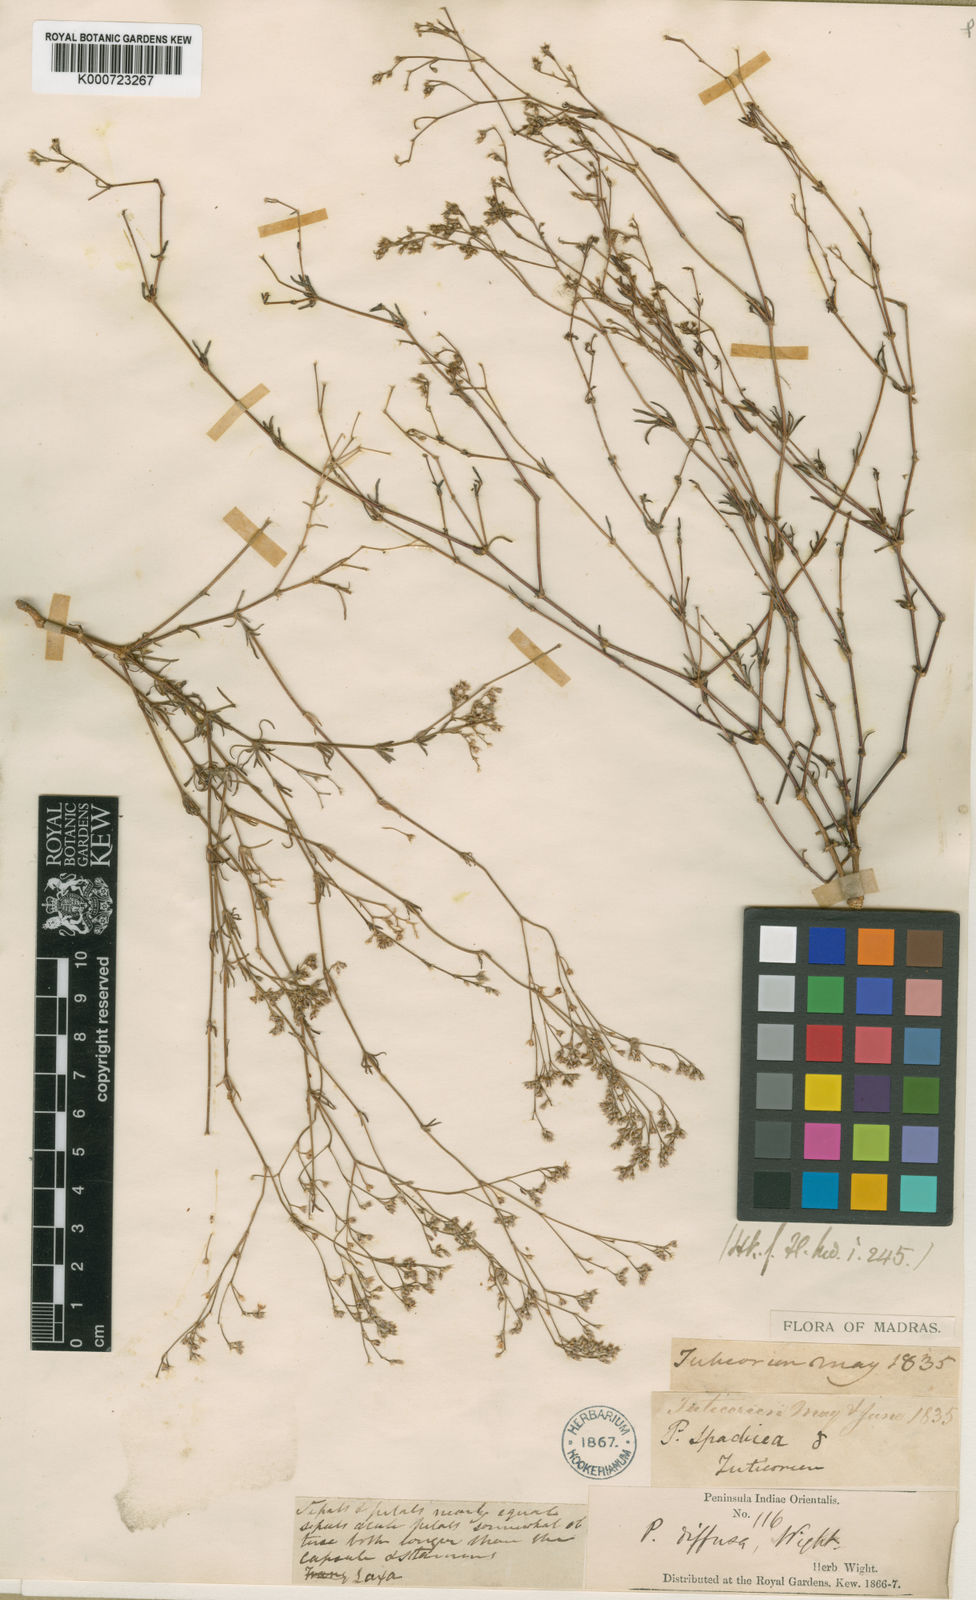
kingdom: Plantae
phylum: Tracheophyta
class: Magnoliopsida
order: Caryophyllales
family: Caryophyllaceae
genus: Polycarpaea
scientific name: Polycarpaea diffusa
